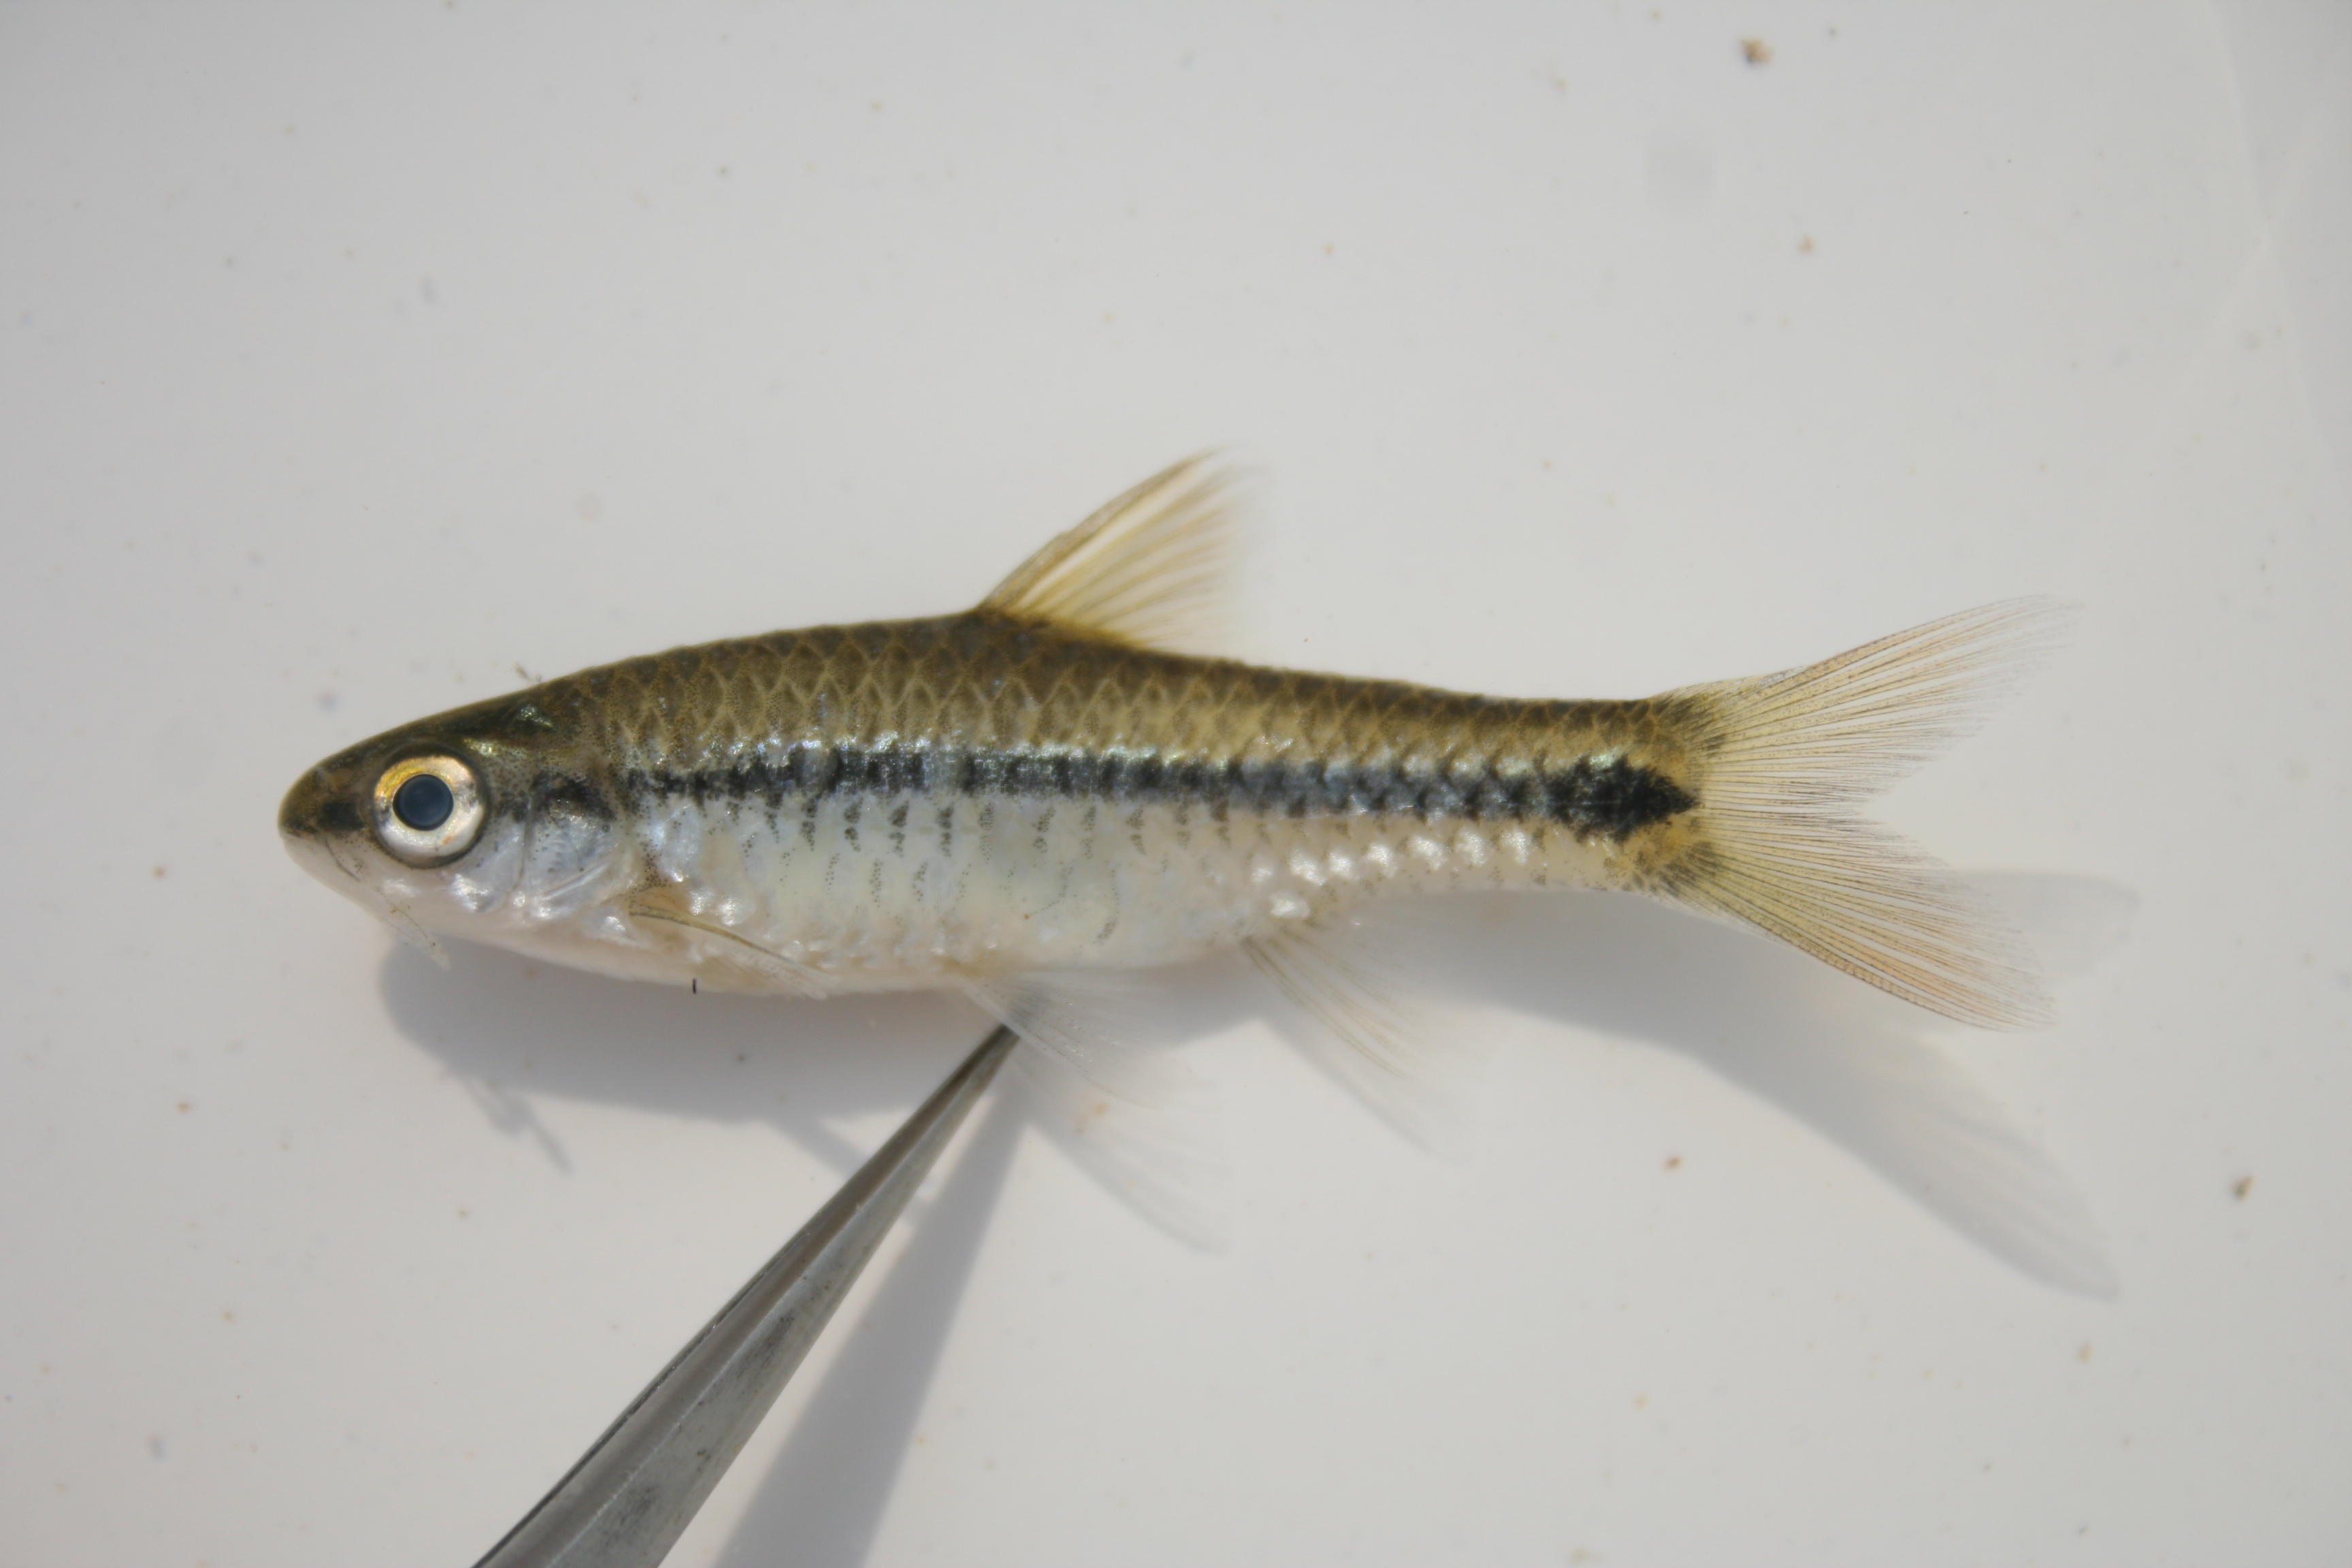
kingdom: Animalia
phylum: Chordata
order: Cypriniformes
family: Cyprinidae
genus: Enteromius
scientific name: Enteromius thamalakanensis
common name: Thamalakane barb
